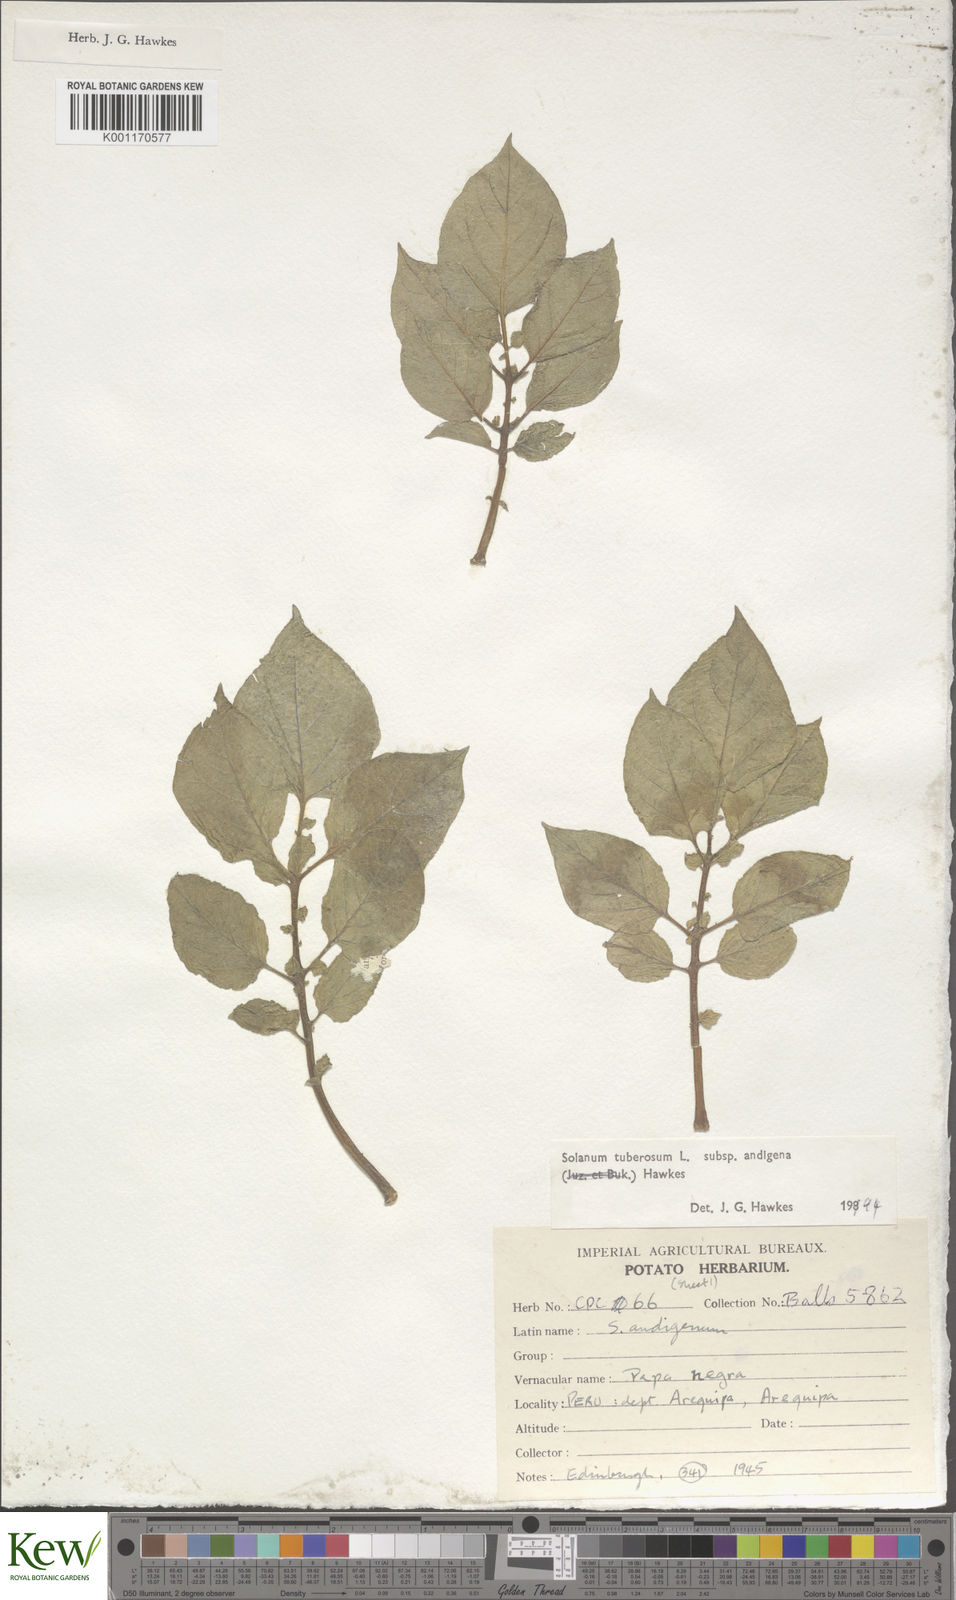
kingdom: Plantae
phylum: Tracheophyta
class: Magnoliopsida
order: Solanales
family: Solanaceae
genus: Solanum
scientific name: Solanum tuberosum
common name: Potato
